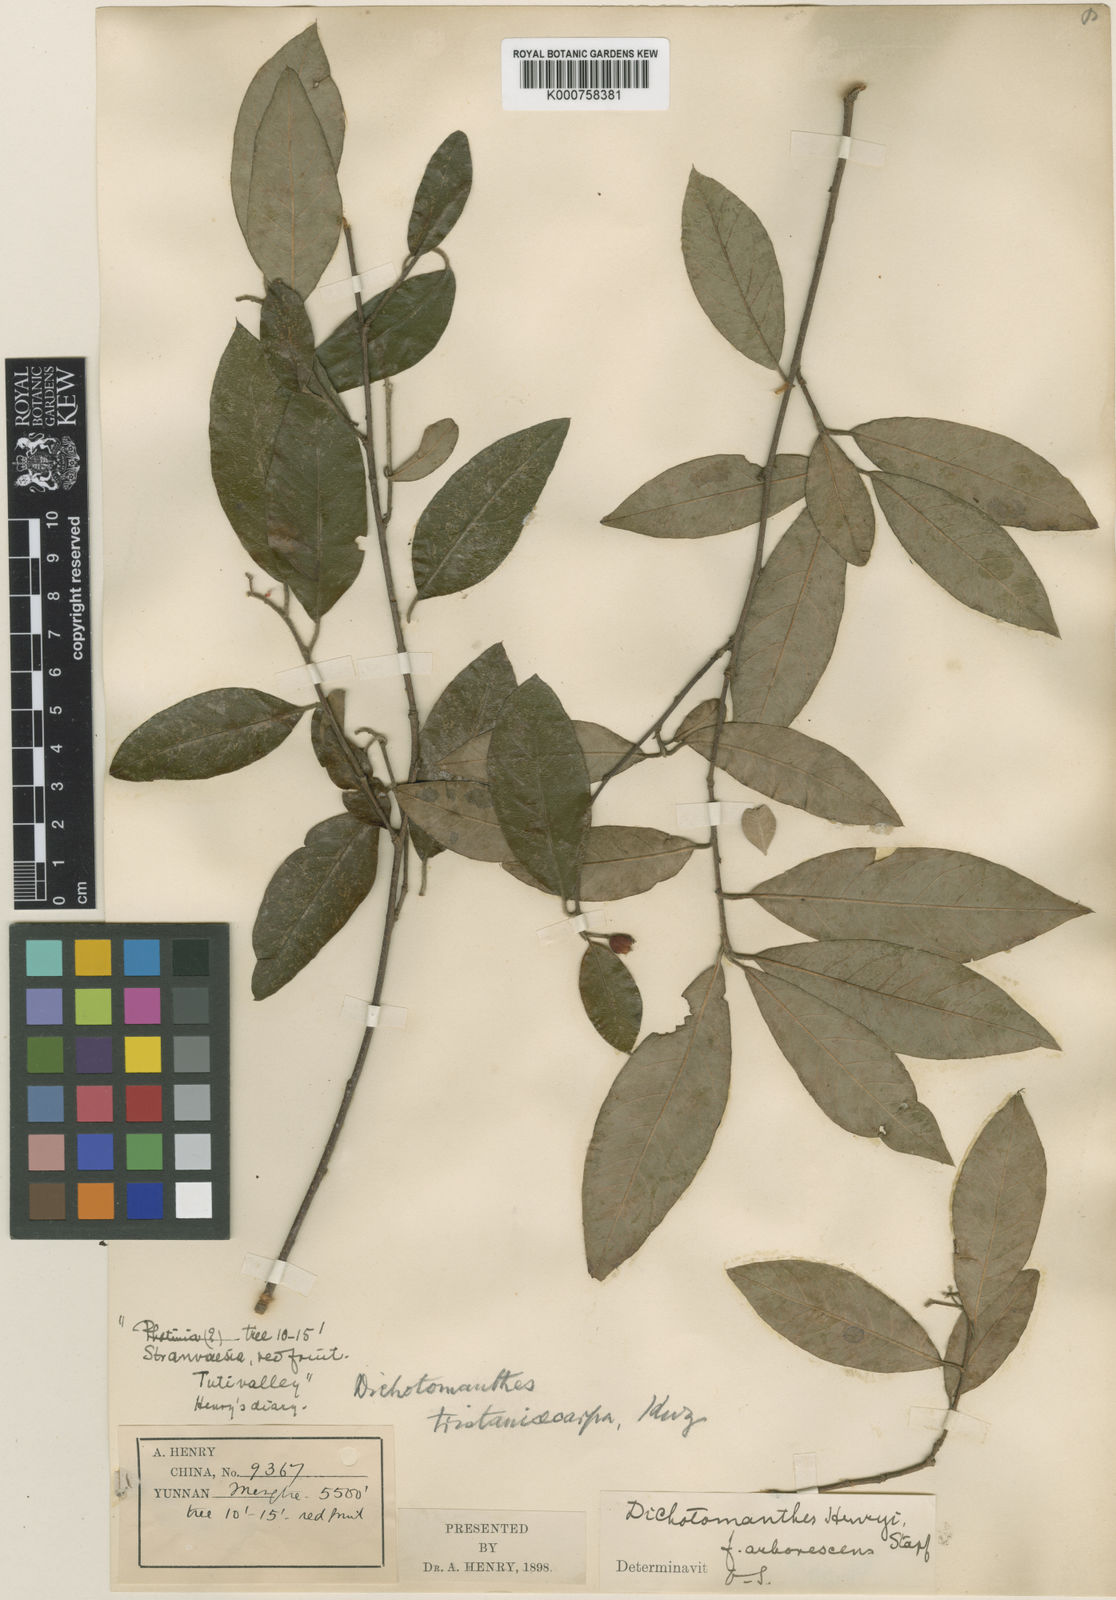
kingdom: Plantae
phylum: Tracheophyta
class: Magnoliopsida
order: Rosales
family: Rosaceae
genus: Dichotomanthes
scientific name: Dichotomanthes
